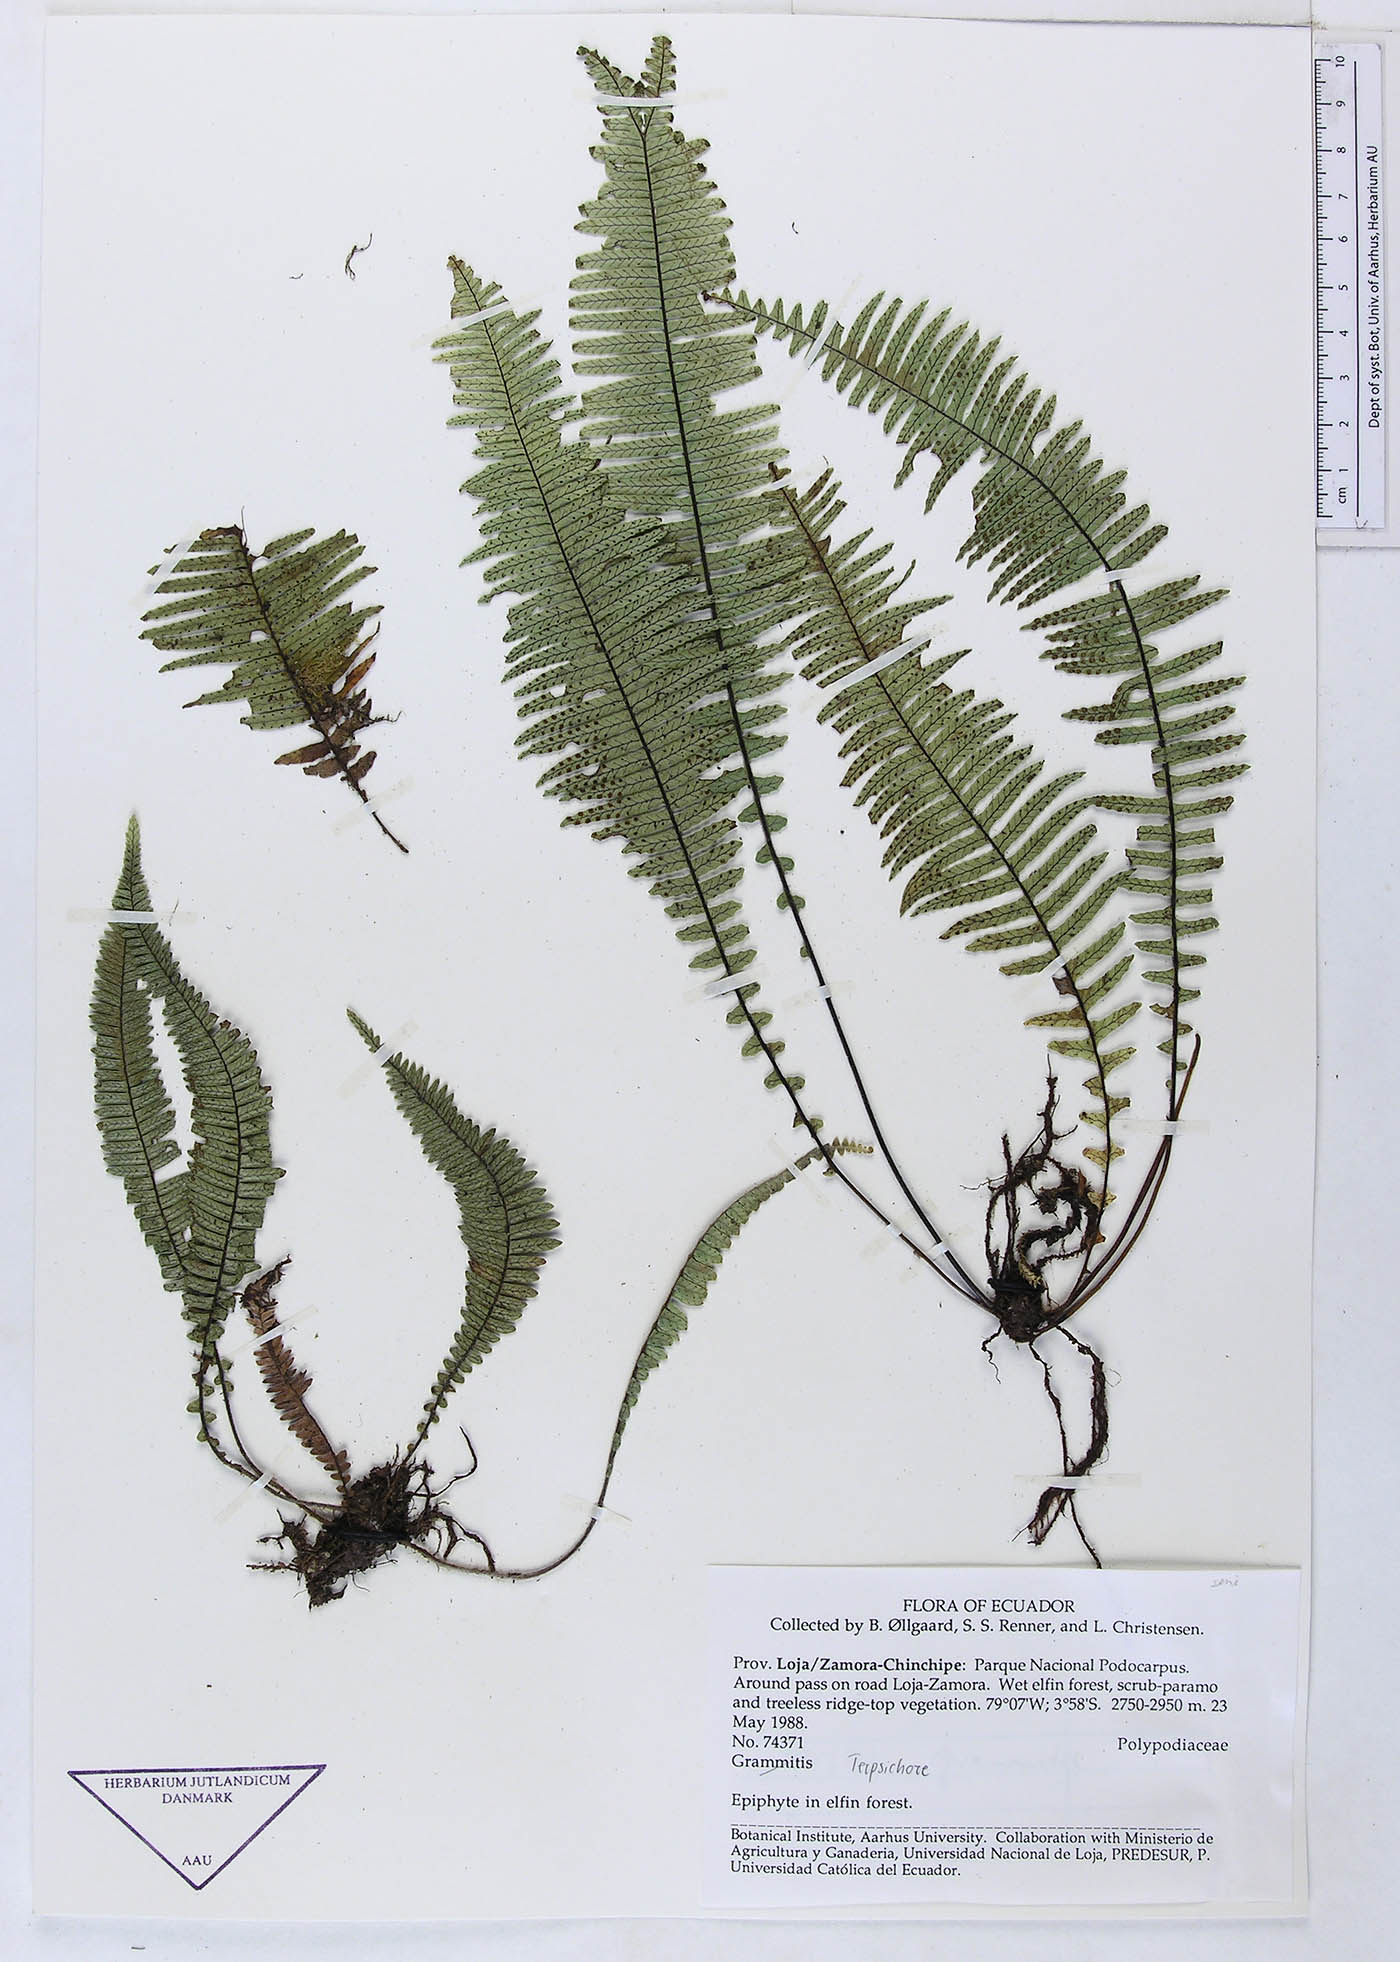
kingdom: Plantae
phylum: Tracheophyta
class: Polypodiopsida
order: Polypodiales
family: Polypodiaceae
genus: Grammitis
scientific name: Grammitis
